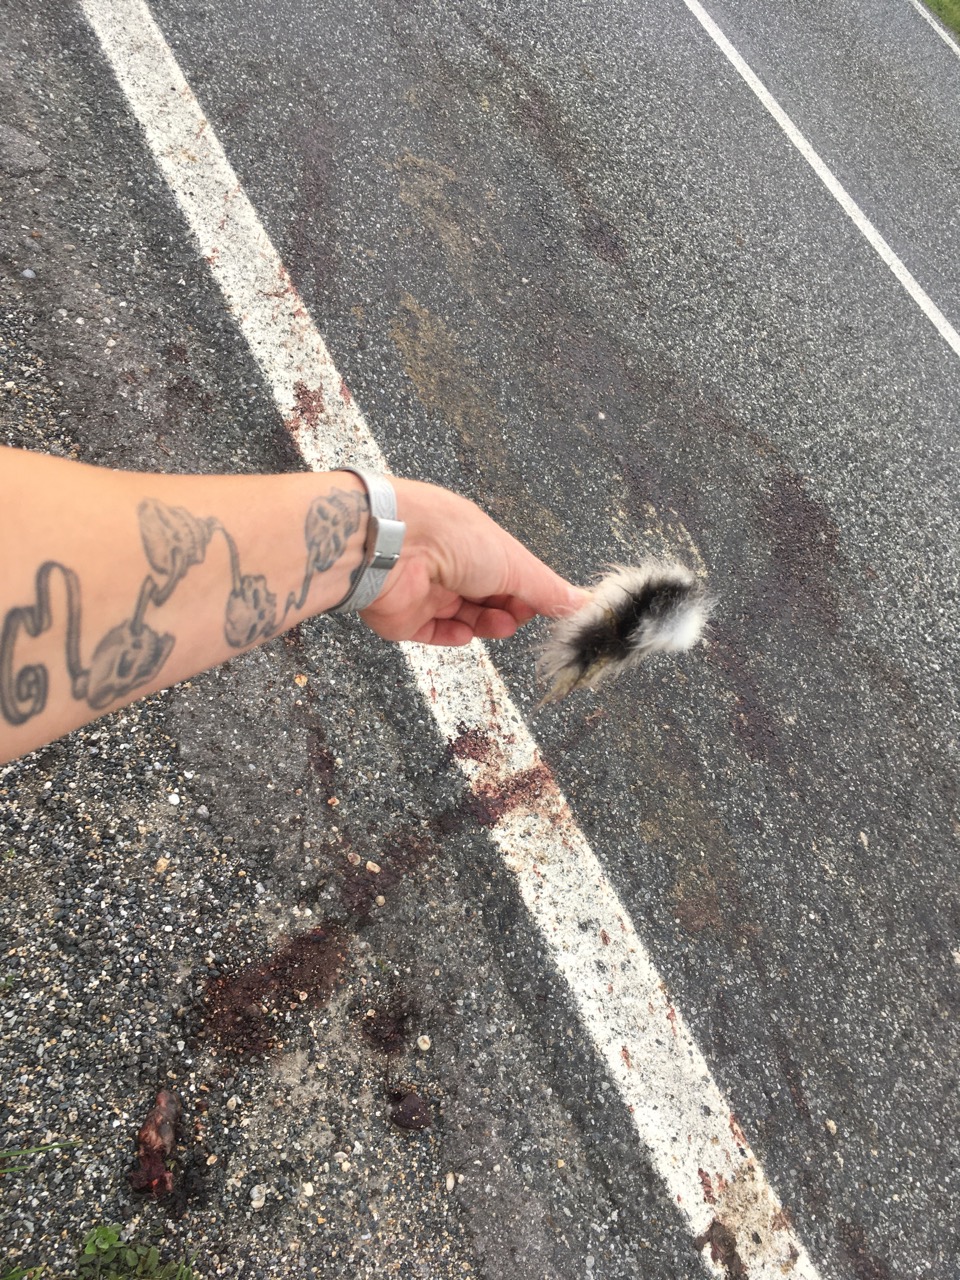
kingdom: Animalia
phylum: Chordata
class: Mammalia
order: Lagomorpha
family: Leporidae
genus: Lepus
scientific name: Lepus europaeus
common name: European hare
